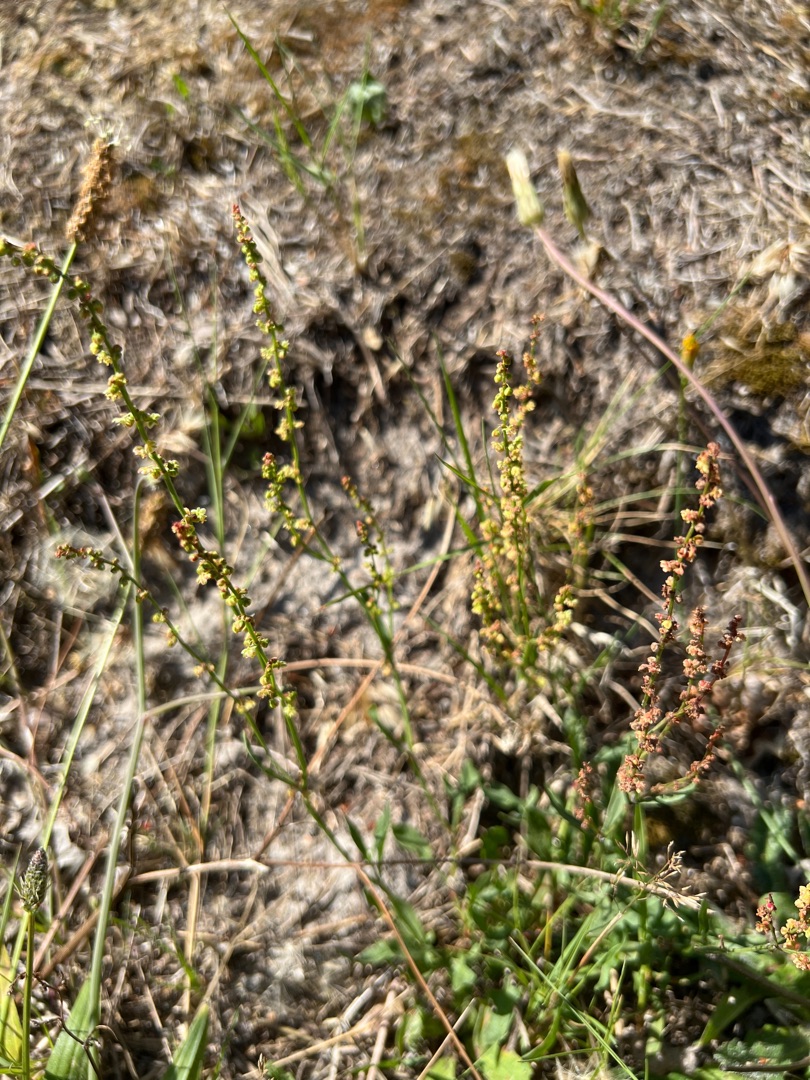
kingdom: Plantae
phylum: Tracheophyta
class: Magnoliopsida
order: Caryophyllales
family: Polygonaceae
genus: Rumex
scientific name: Rumex acetosella
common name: Rødknæ
